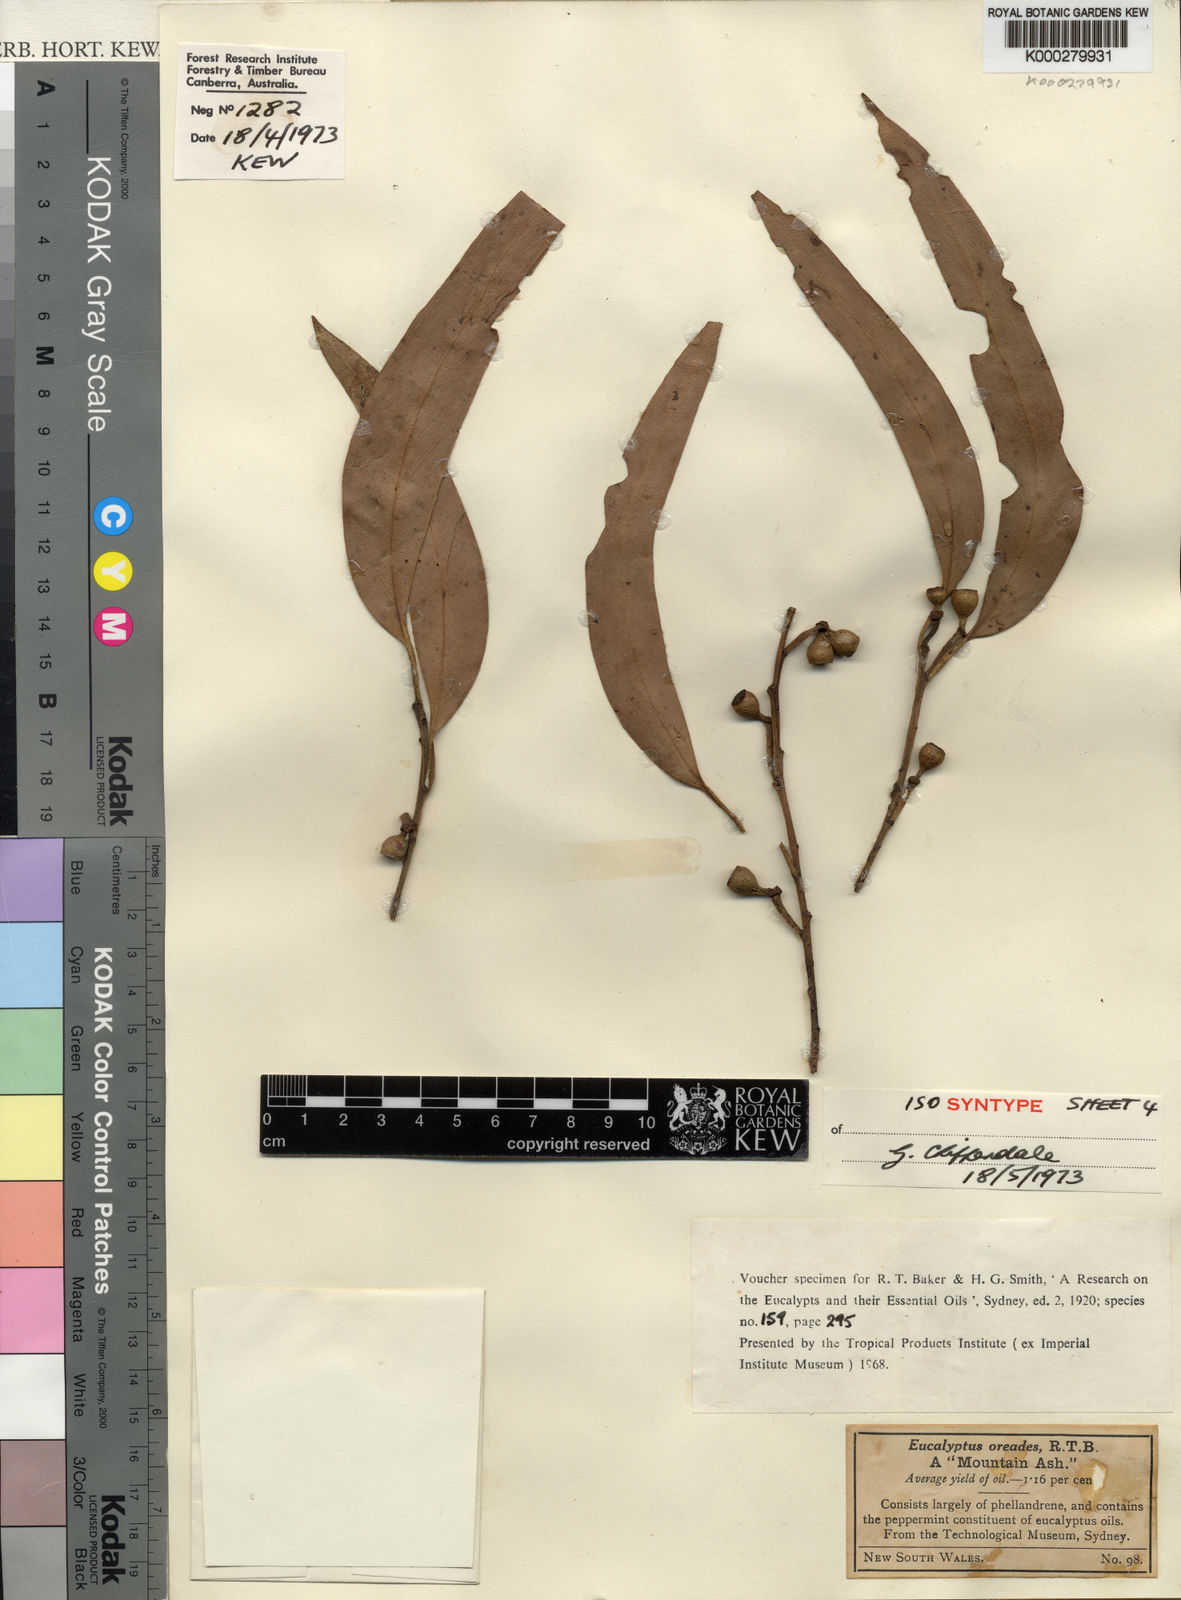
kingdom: Plantae
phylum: Tracheophyta
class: Magnoliopsida
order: Myrtales
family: Myrtaceae
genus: Eucalyptus
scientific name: Eucalyptus oreades
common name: White-ash
